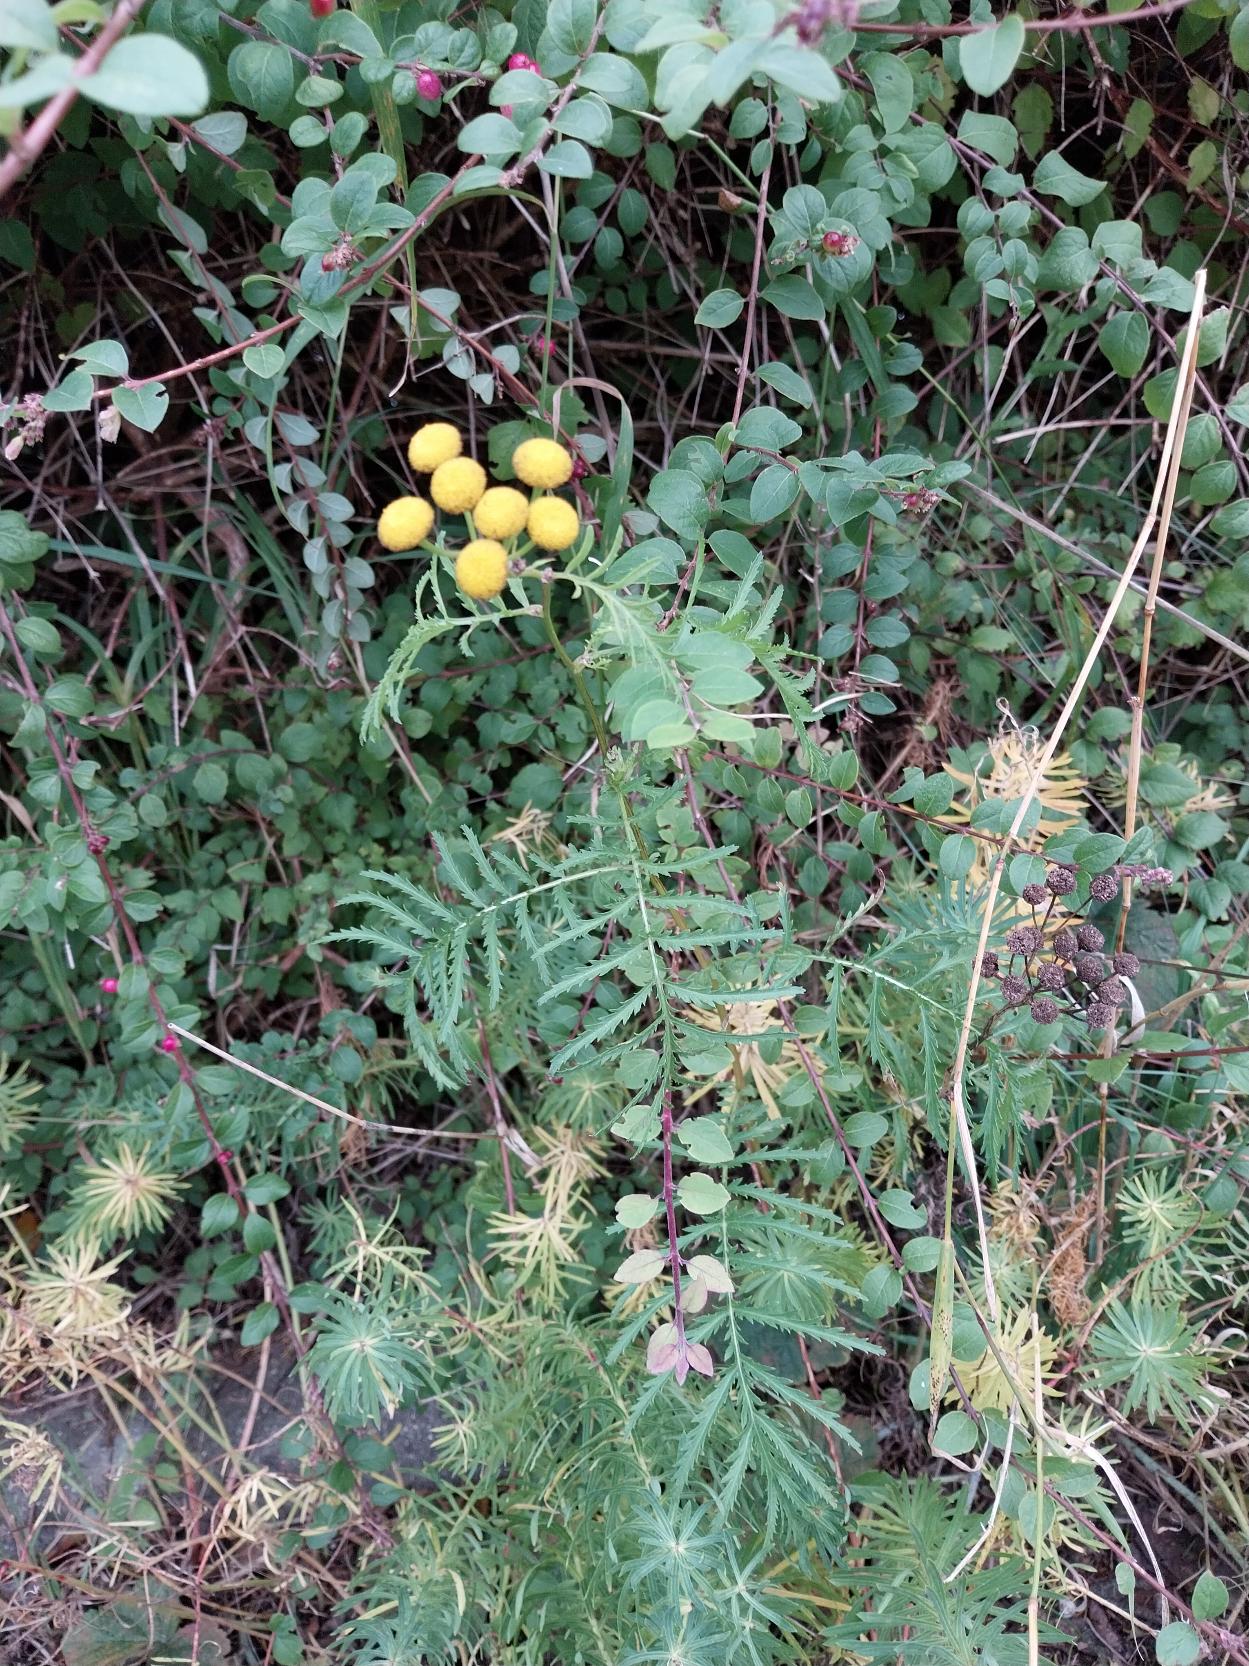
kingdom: Plantae
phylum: Tracheophyta
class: Magnoliopsida
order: Asterales
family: Asteraceae
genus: Tanacetum
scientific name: Tanacetum vulgare
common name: Rejnfan
